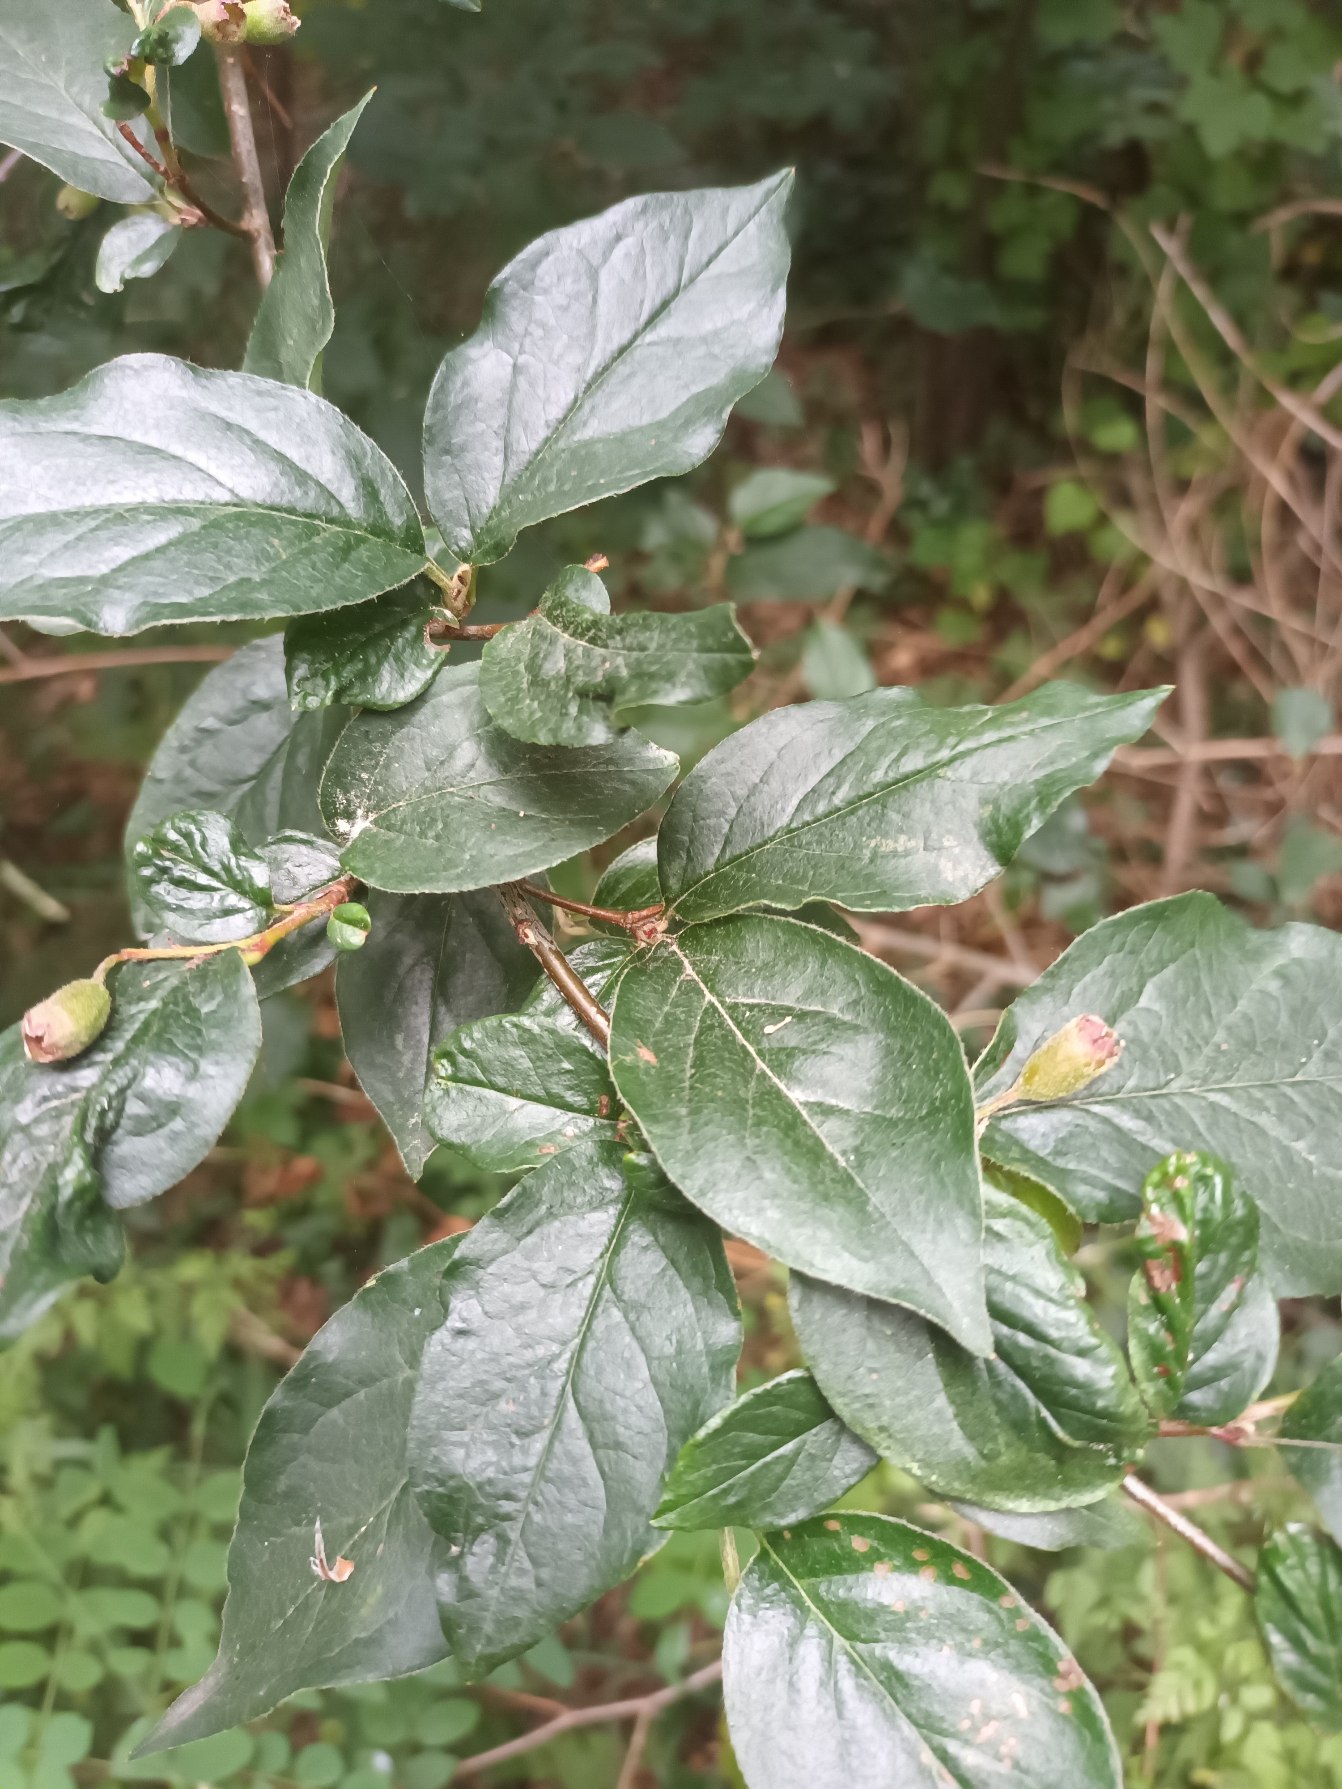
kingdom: Plantae
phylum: Tracheophyta
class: Magnoliopsida
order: Rosales
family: Rosaceae
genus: Cotoneaster
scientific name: Cotoneaster acutifolius
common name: Glans-dværgmispel
